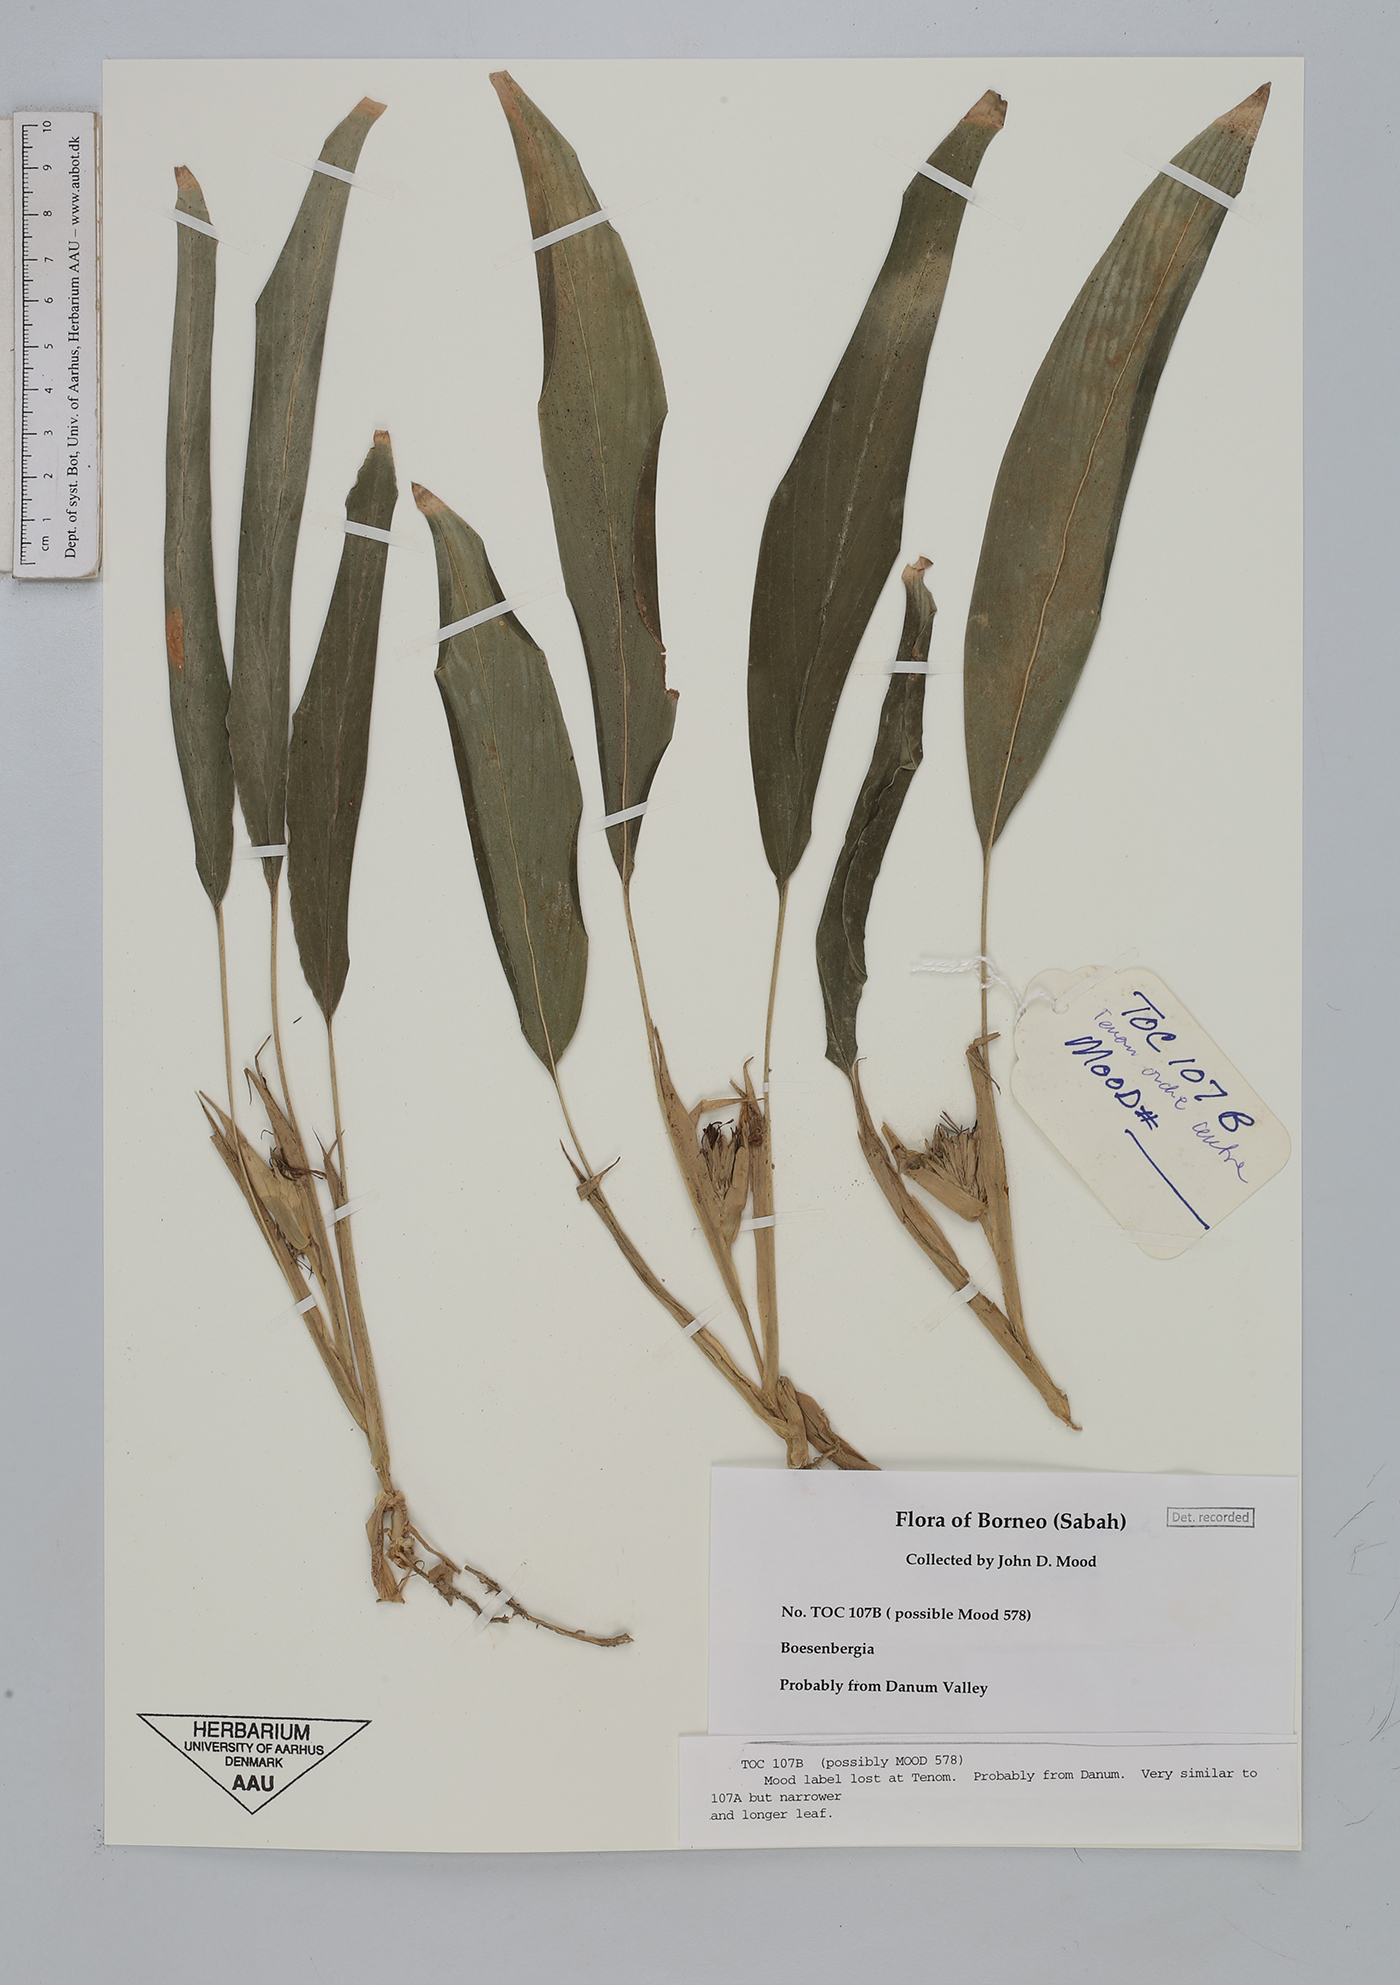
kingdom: Plantae
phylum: Tracheophyta
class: Liliopsida
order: Zingiberales
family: Zingiberaceae
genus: Boesenbergia
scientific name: Boesenbergia
